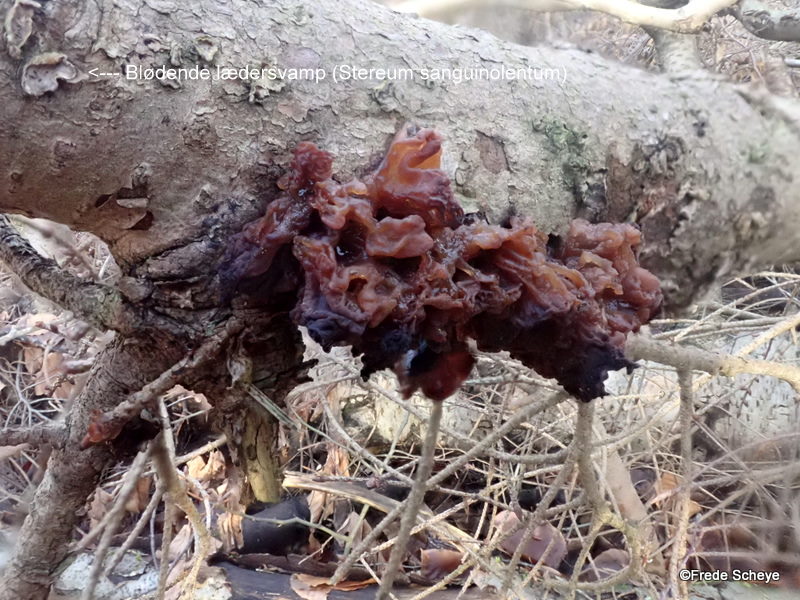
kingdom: Fungi
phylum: Basidiomycota
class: Tremellomycetes
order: Tremellales
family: Tremellaceae
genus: Phaeotremella
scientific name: Phaeotremella foliacea
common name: brun bævresvamp
